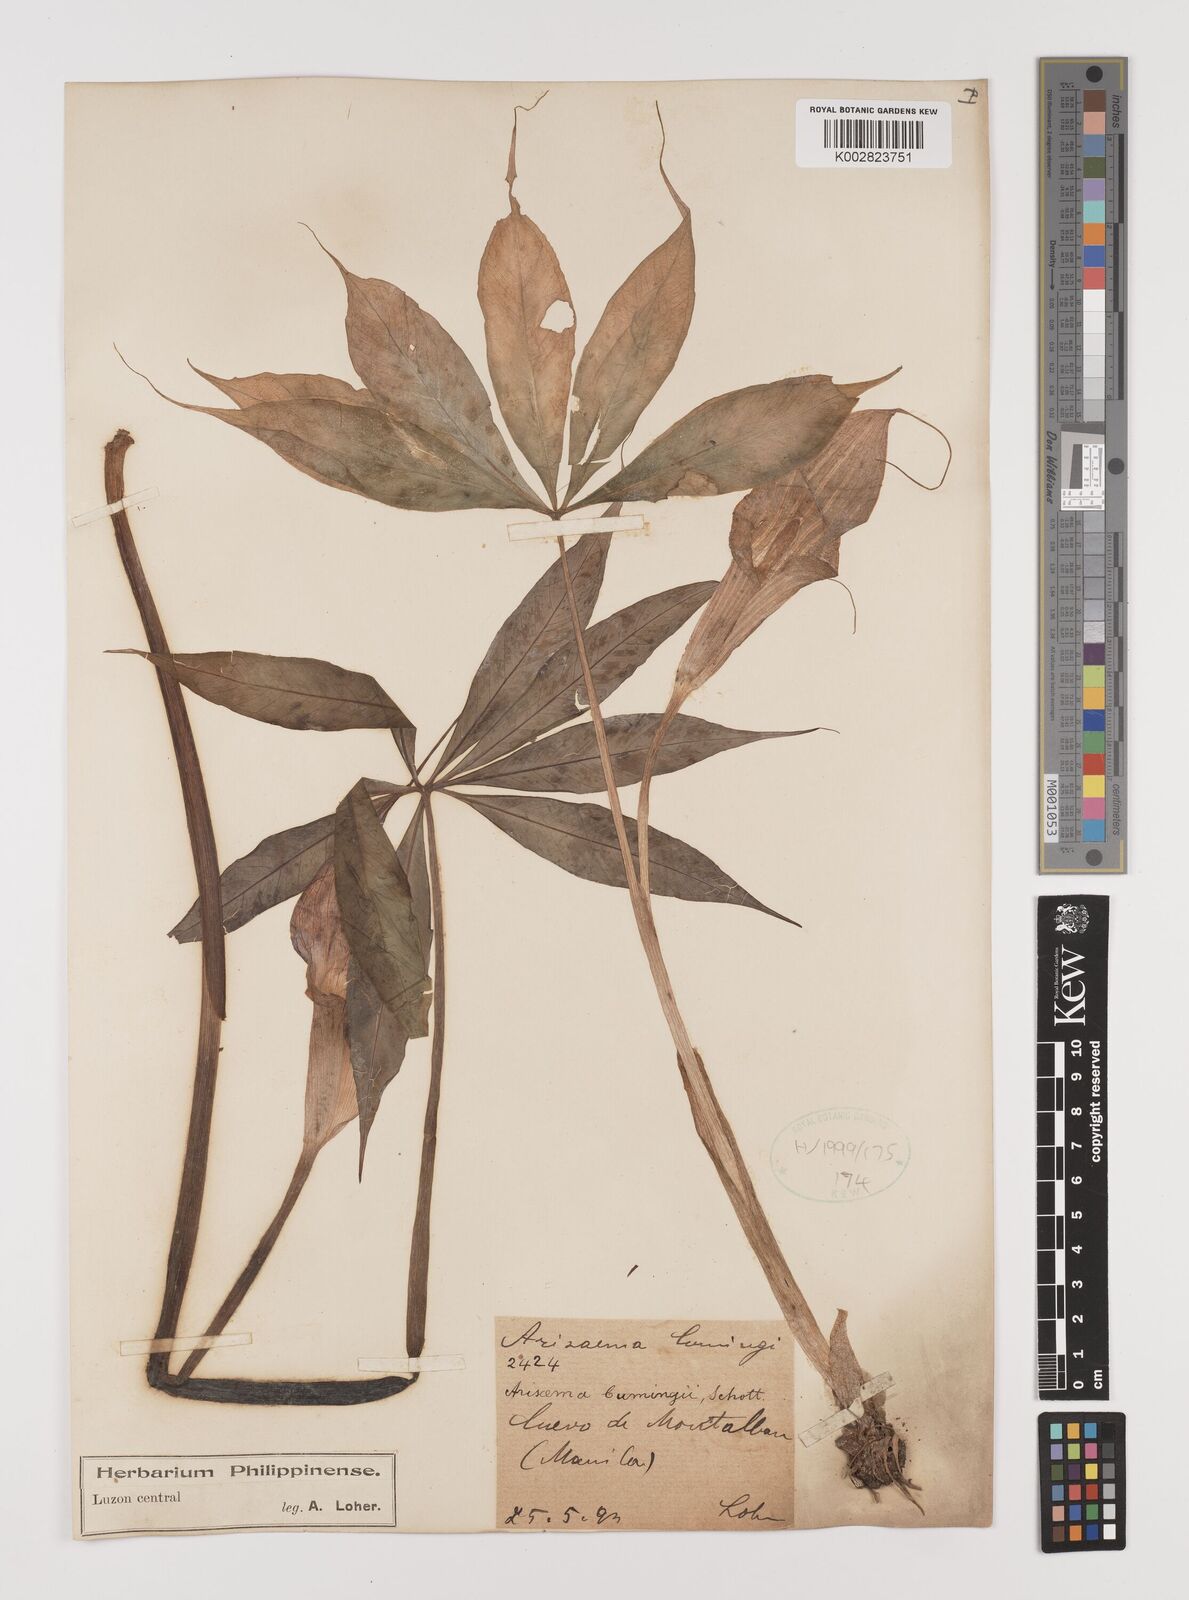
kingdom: Plantae
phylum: Tracheophyta
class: Liliopsida
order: Alismatales
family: Araceae
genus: Arisaema
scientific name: Arisaema polyphyllum
